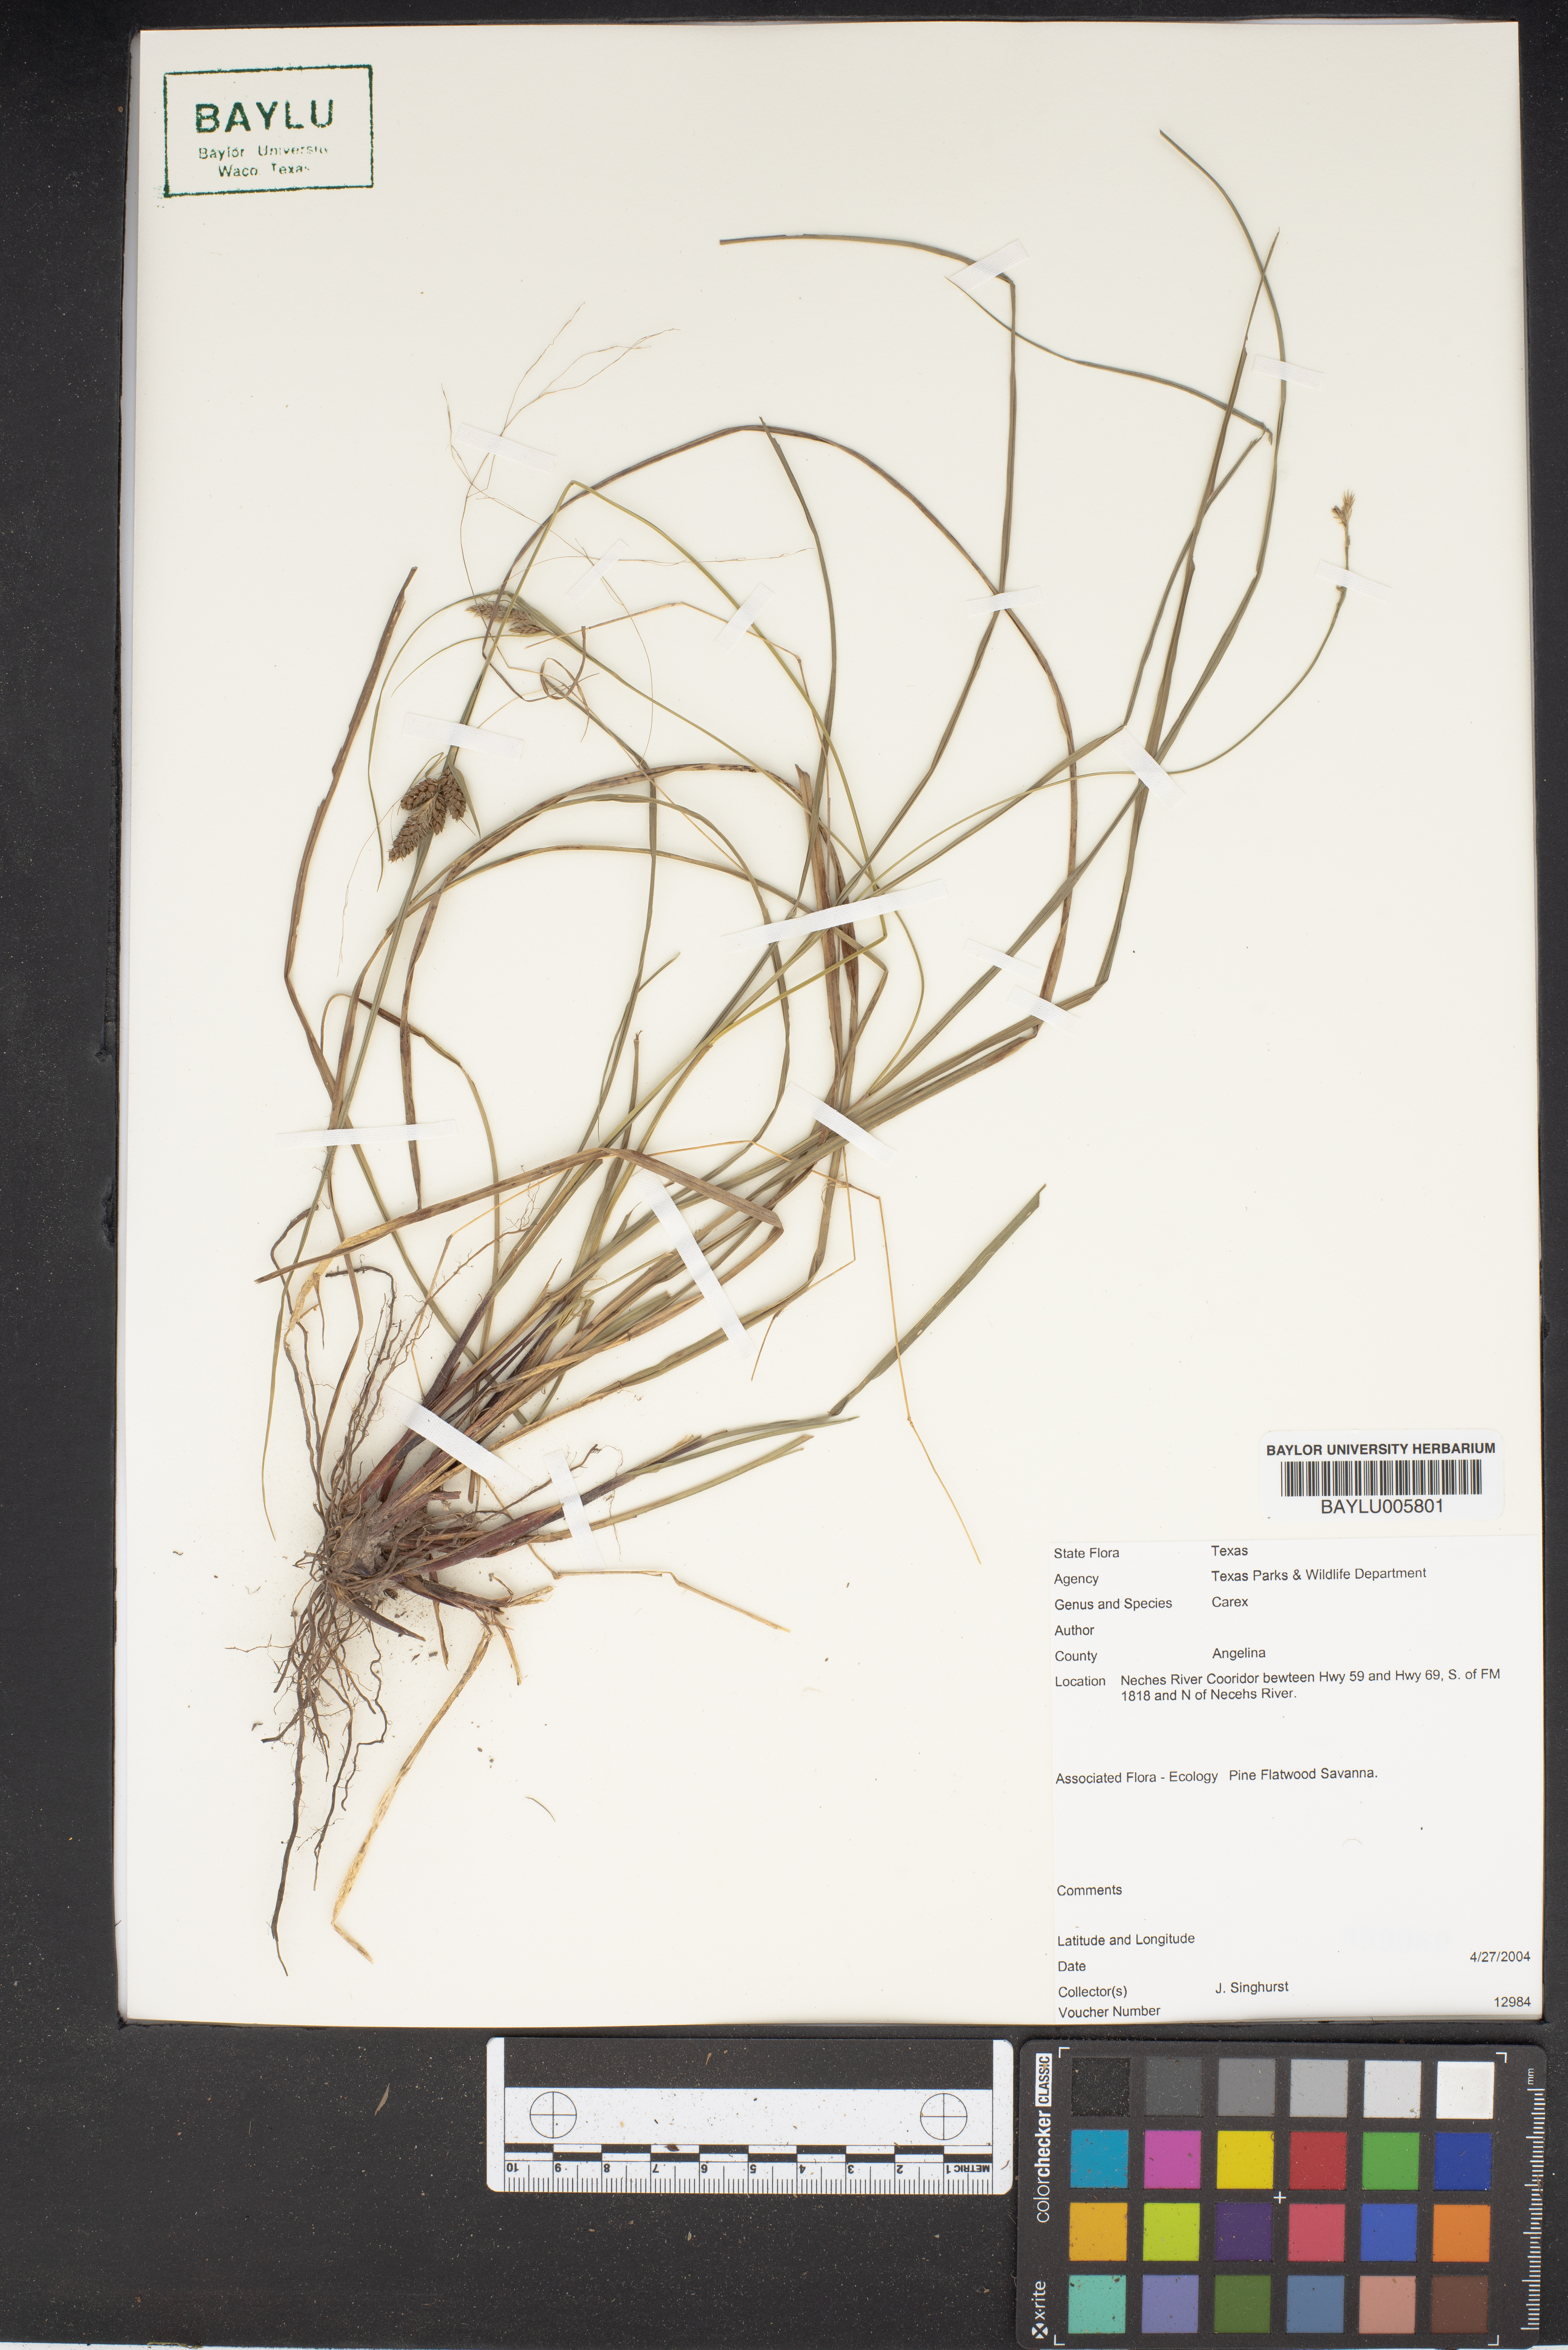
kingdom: Plantae
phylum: Tracheophyta
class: Liliopsida
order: Poales
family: Cyperaceae
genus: Carex
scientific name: Carex
